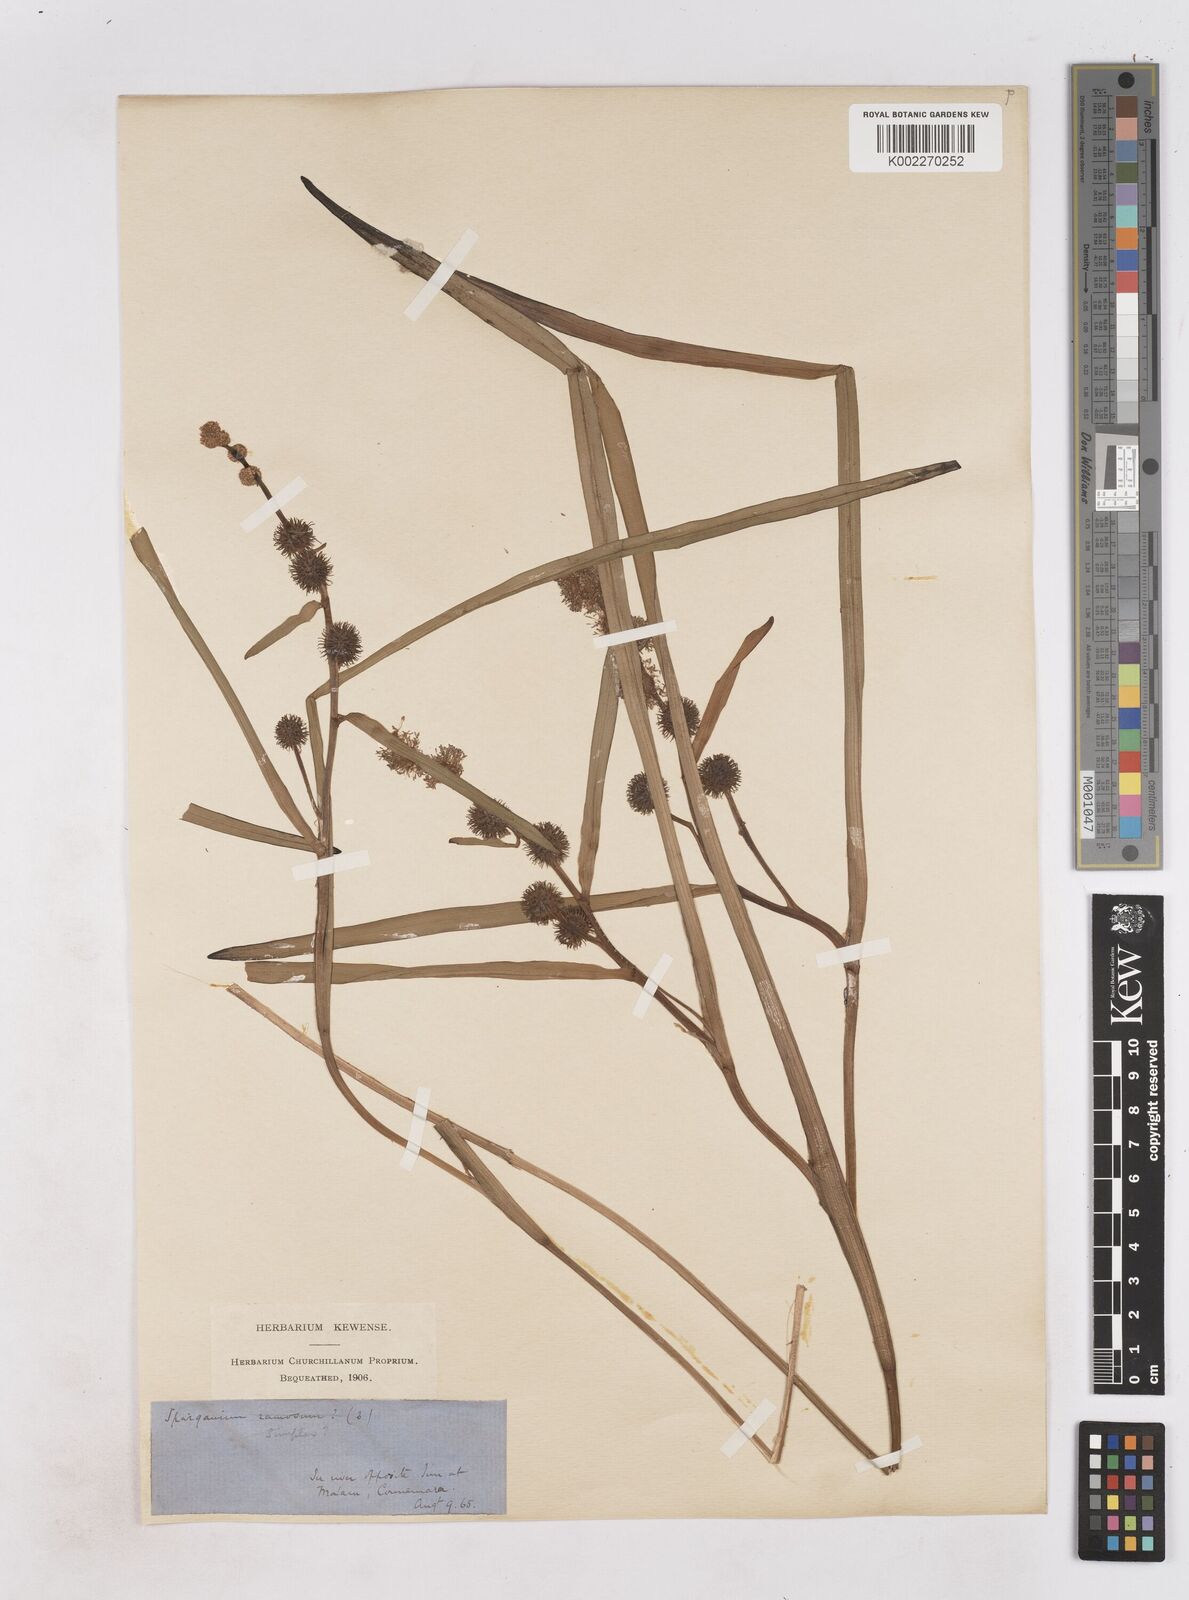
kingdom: Plantae
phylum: Tracheophyta
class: Liliopsida
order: Poales
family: Typhaceae
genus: Sparganium
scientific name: Sparganium emersum
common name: Unbranched bur-reed
